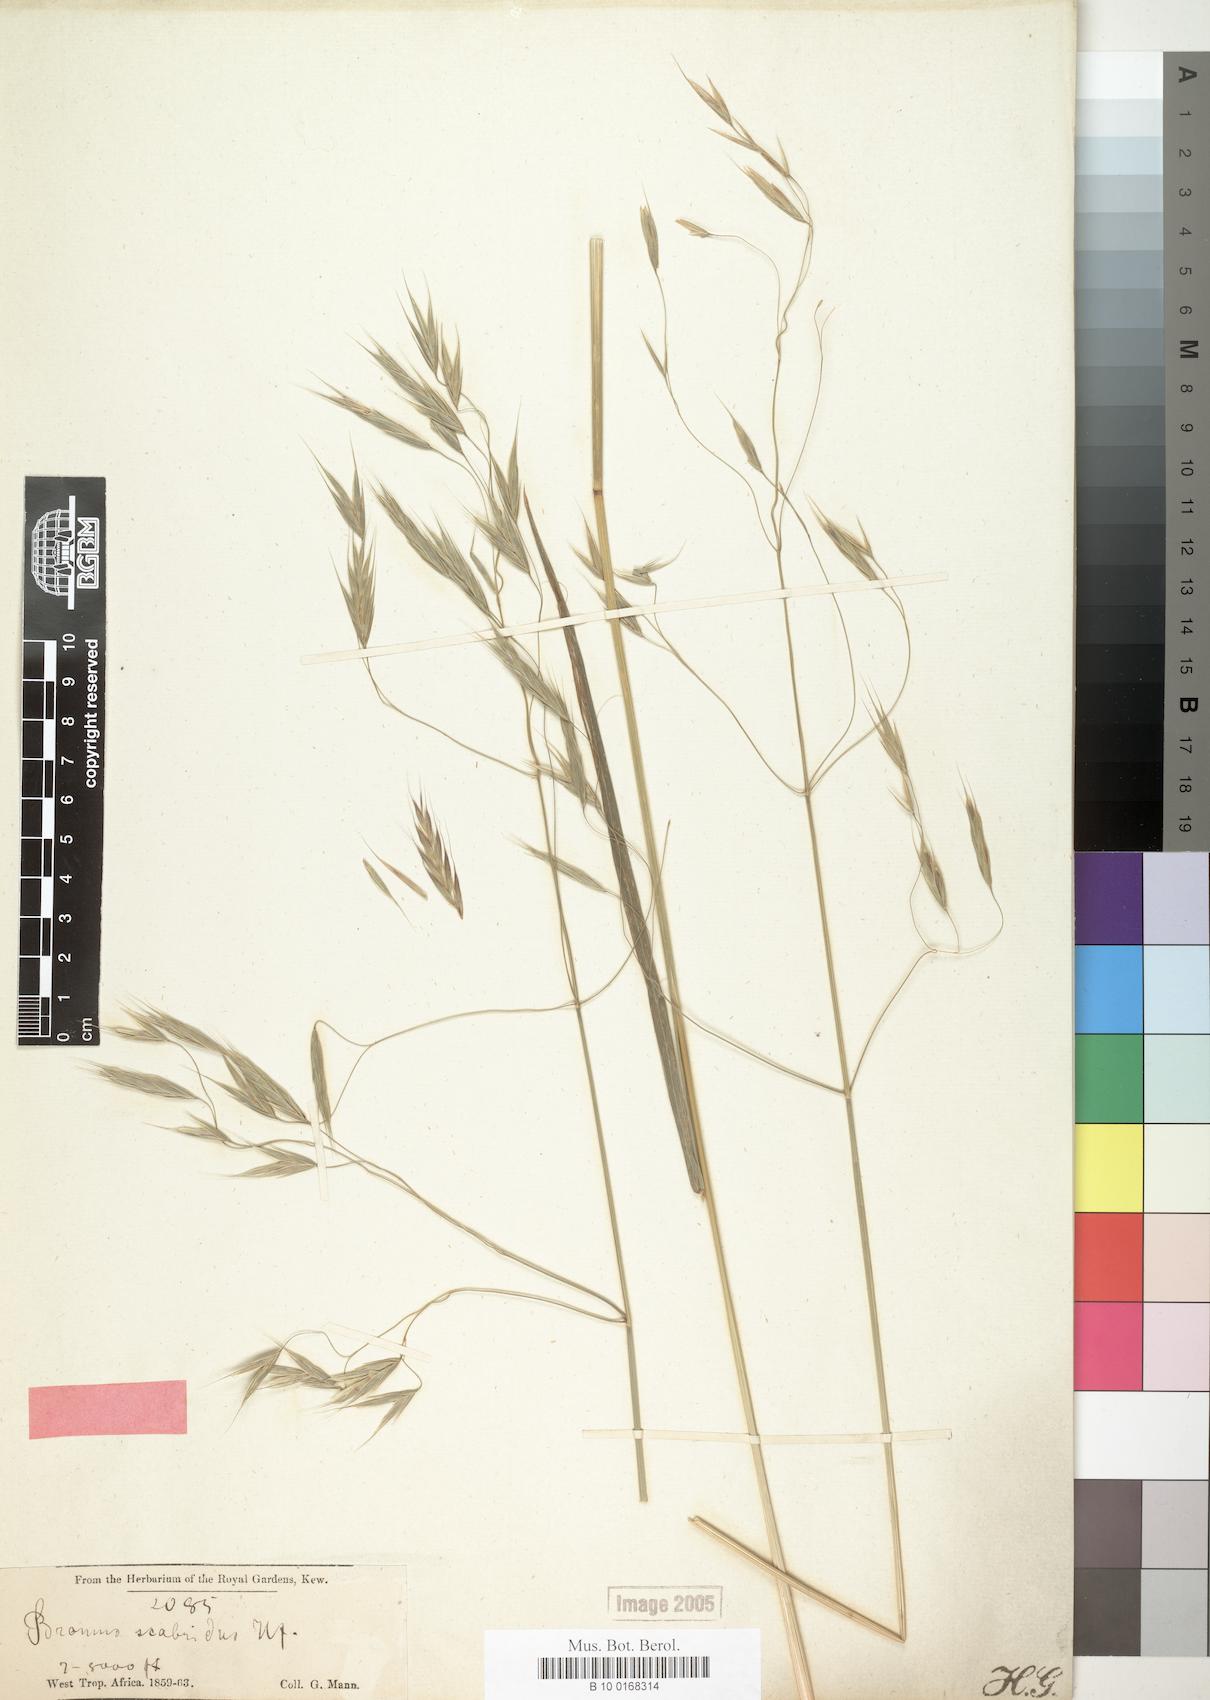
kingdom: Plantae
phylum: Tracheophyta
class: Liliopsida
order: Poales
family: Poaceae
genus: Bromus
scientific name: Bromus leptoclados
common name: Mountain bromegrass
